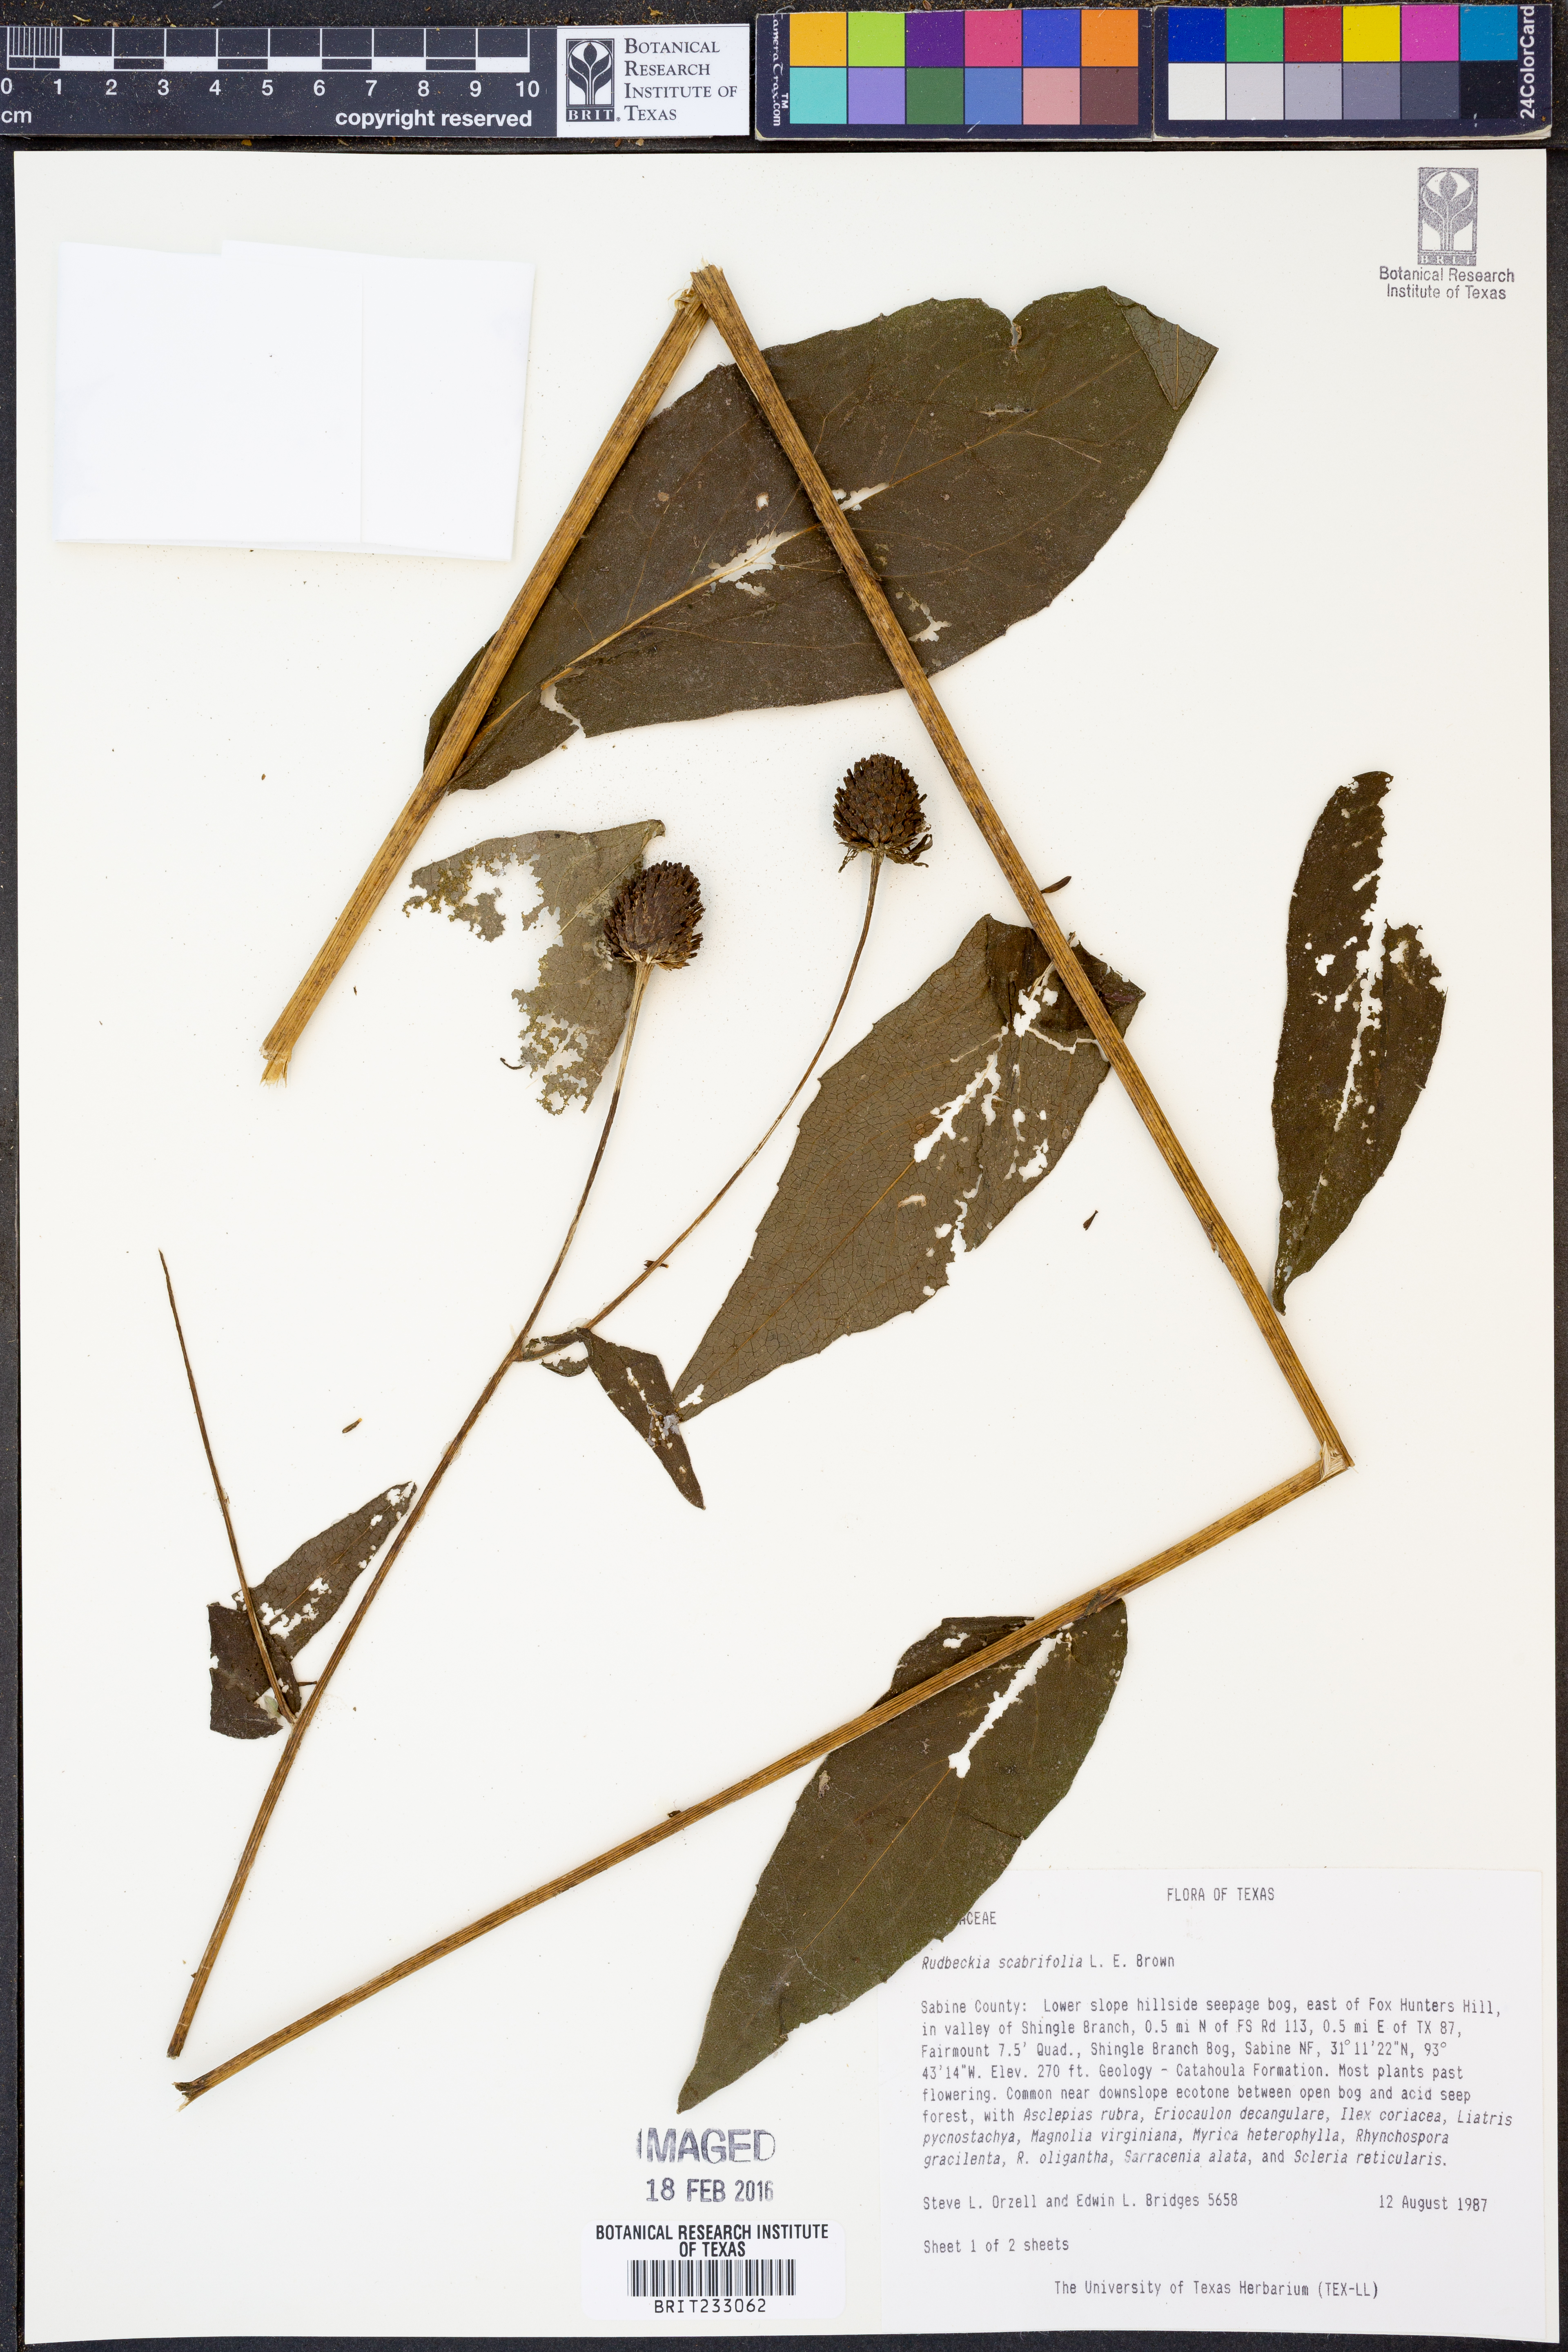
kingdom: Plantae
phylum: Tracheophyta
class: Magnoliopsida
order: Asterales
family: Asteraceae
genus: Rudbeckia
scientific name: Rudbeckia scabrifolia
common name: Rough-leaf coneflower
